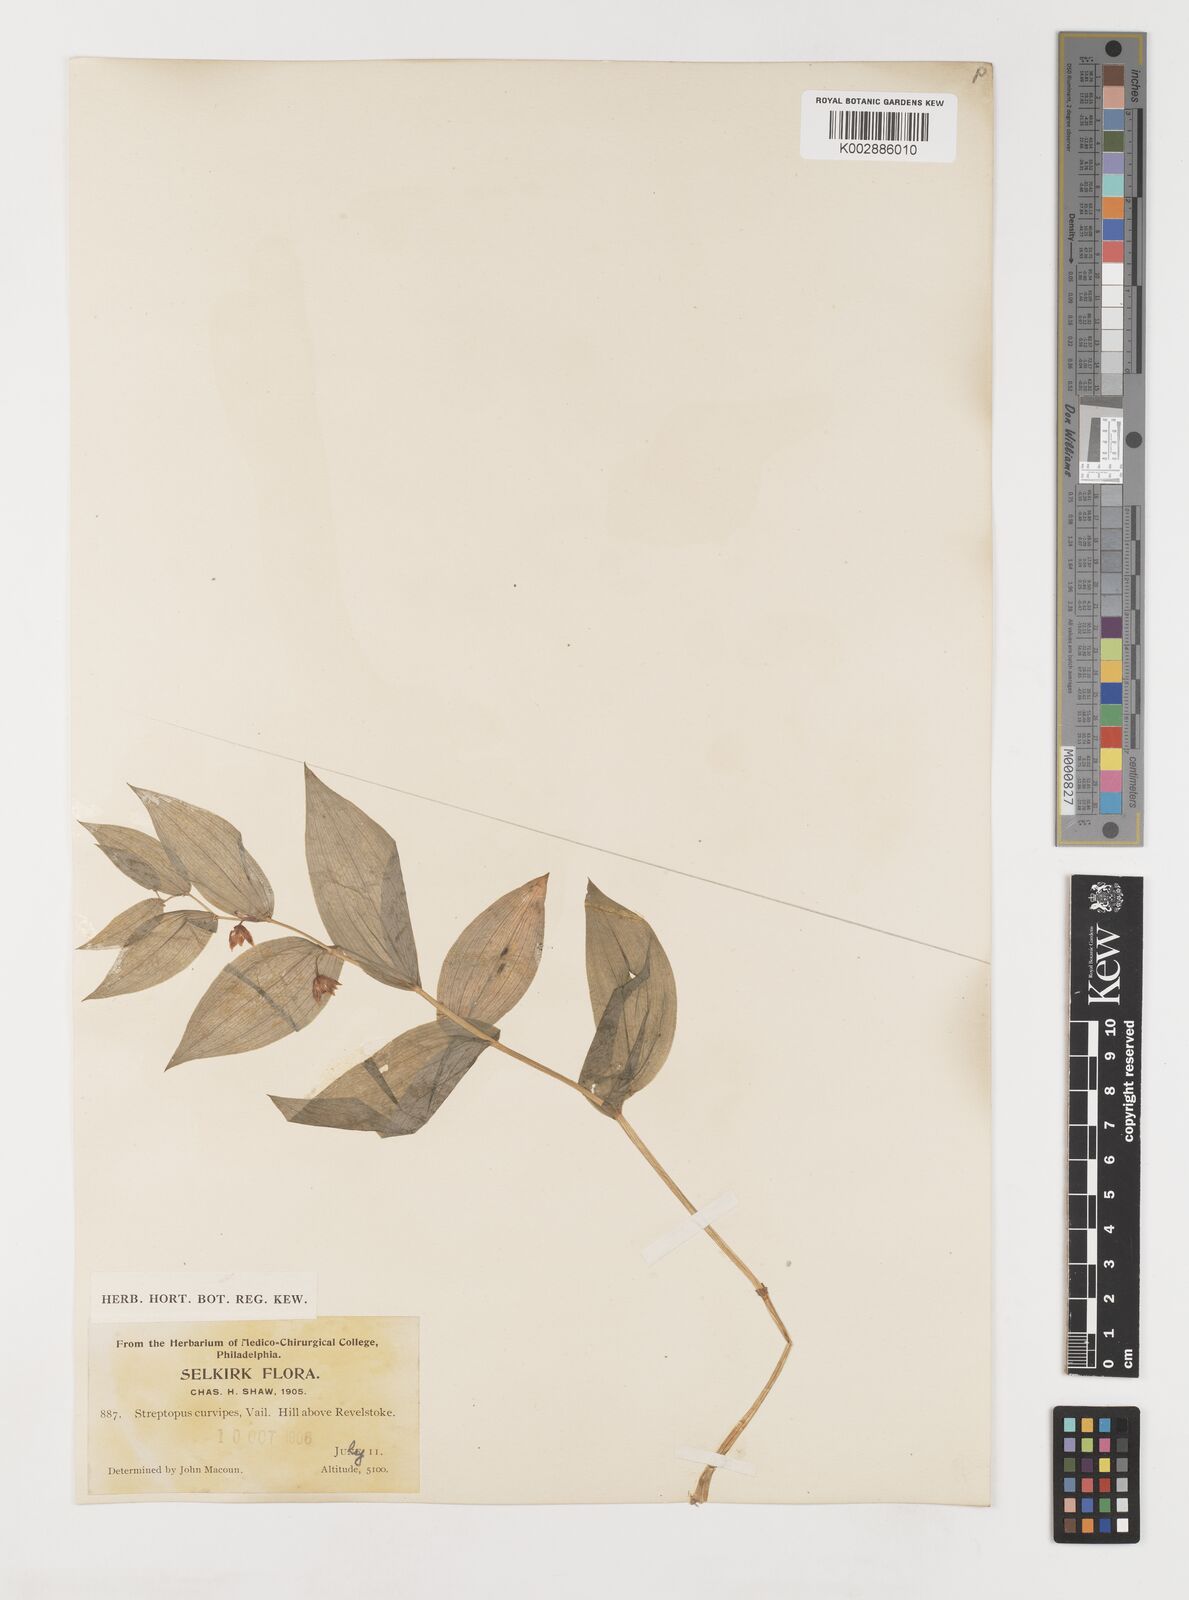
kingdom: Plantae
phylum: Tracheophyta
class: Liliopsida
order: Liliales
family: Liliaceae
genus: Streptopus
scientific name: Streptopus lanceolatus
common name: Rose mandarin
